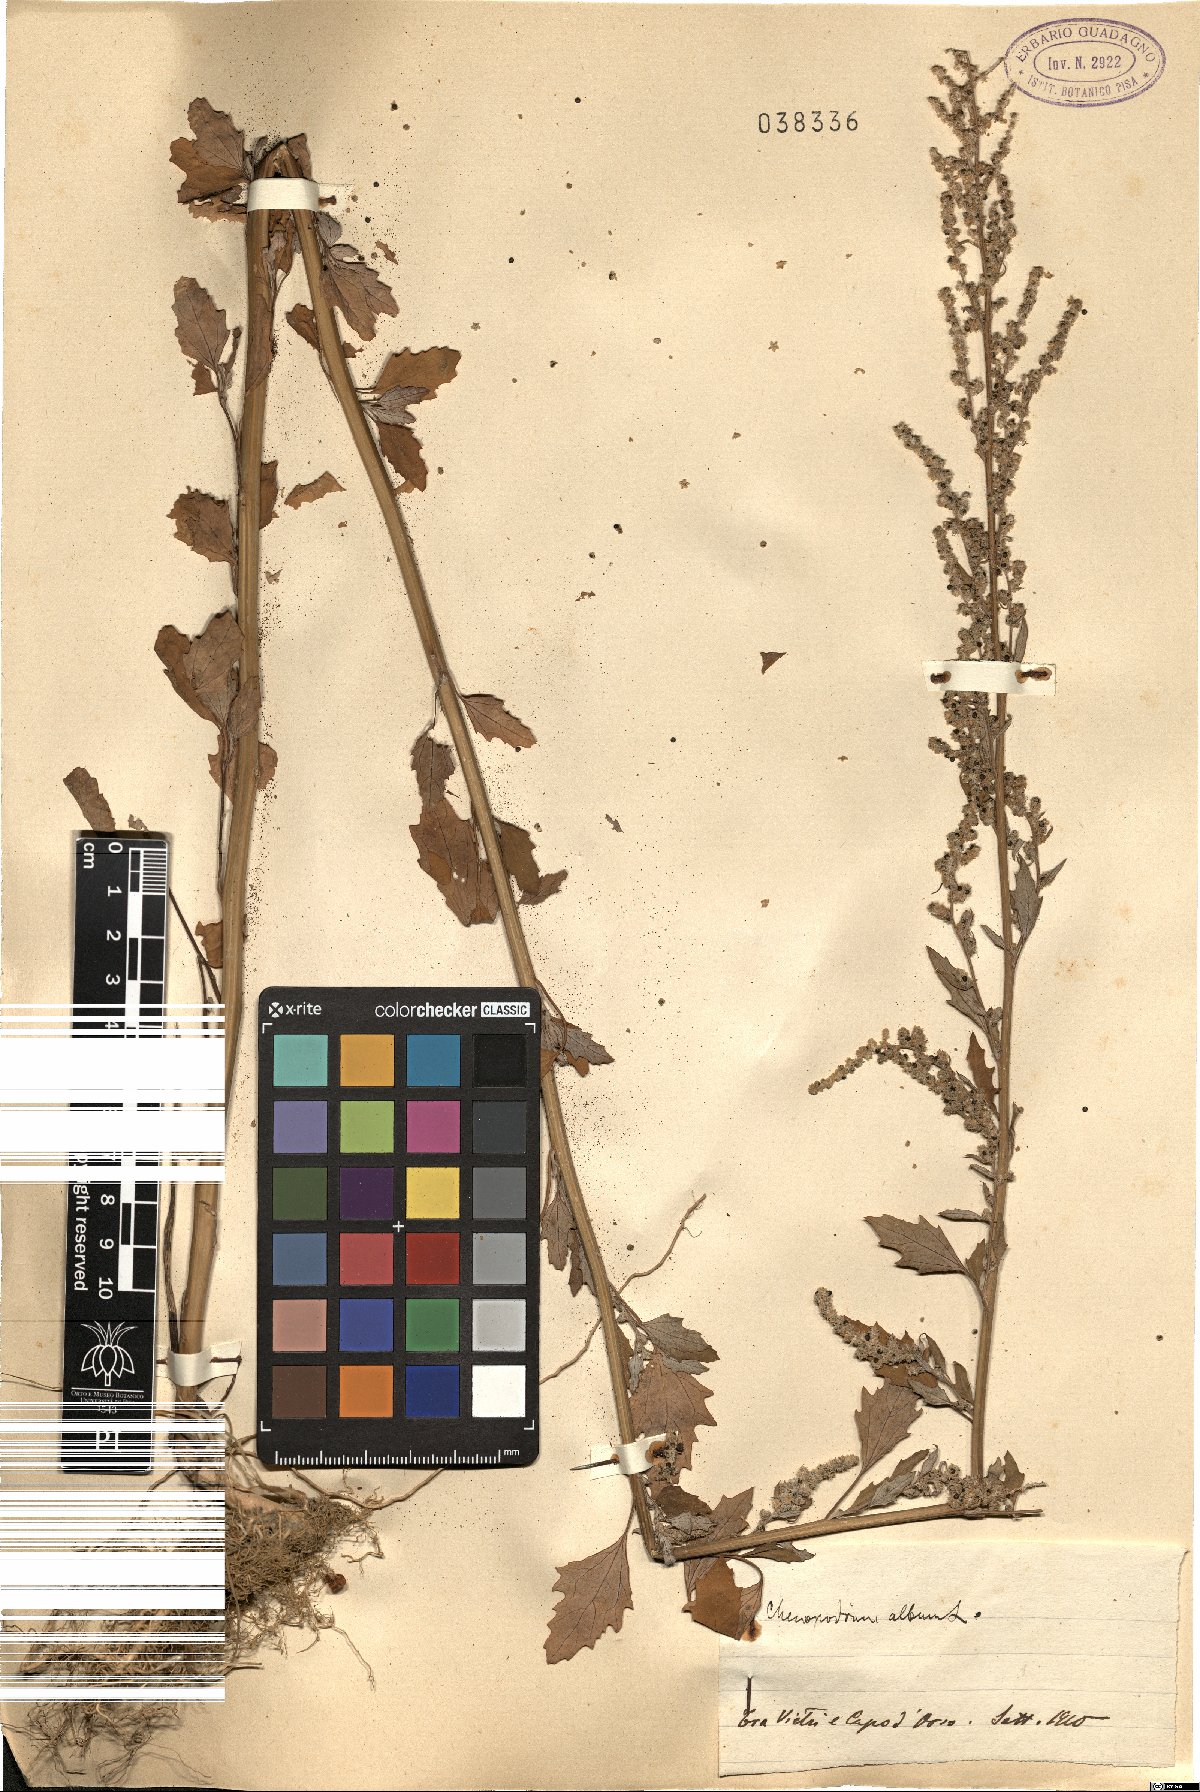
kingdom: Plantae
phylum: Tracheophyta
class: Magnoliopsida
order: Caryophyllales
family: Amaranthaceae
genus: Chenopodium
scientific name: Chenopodium album
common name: Fat-hen
